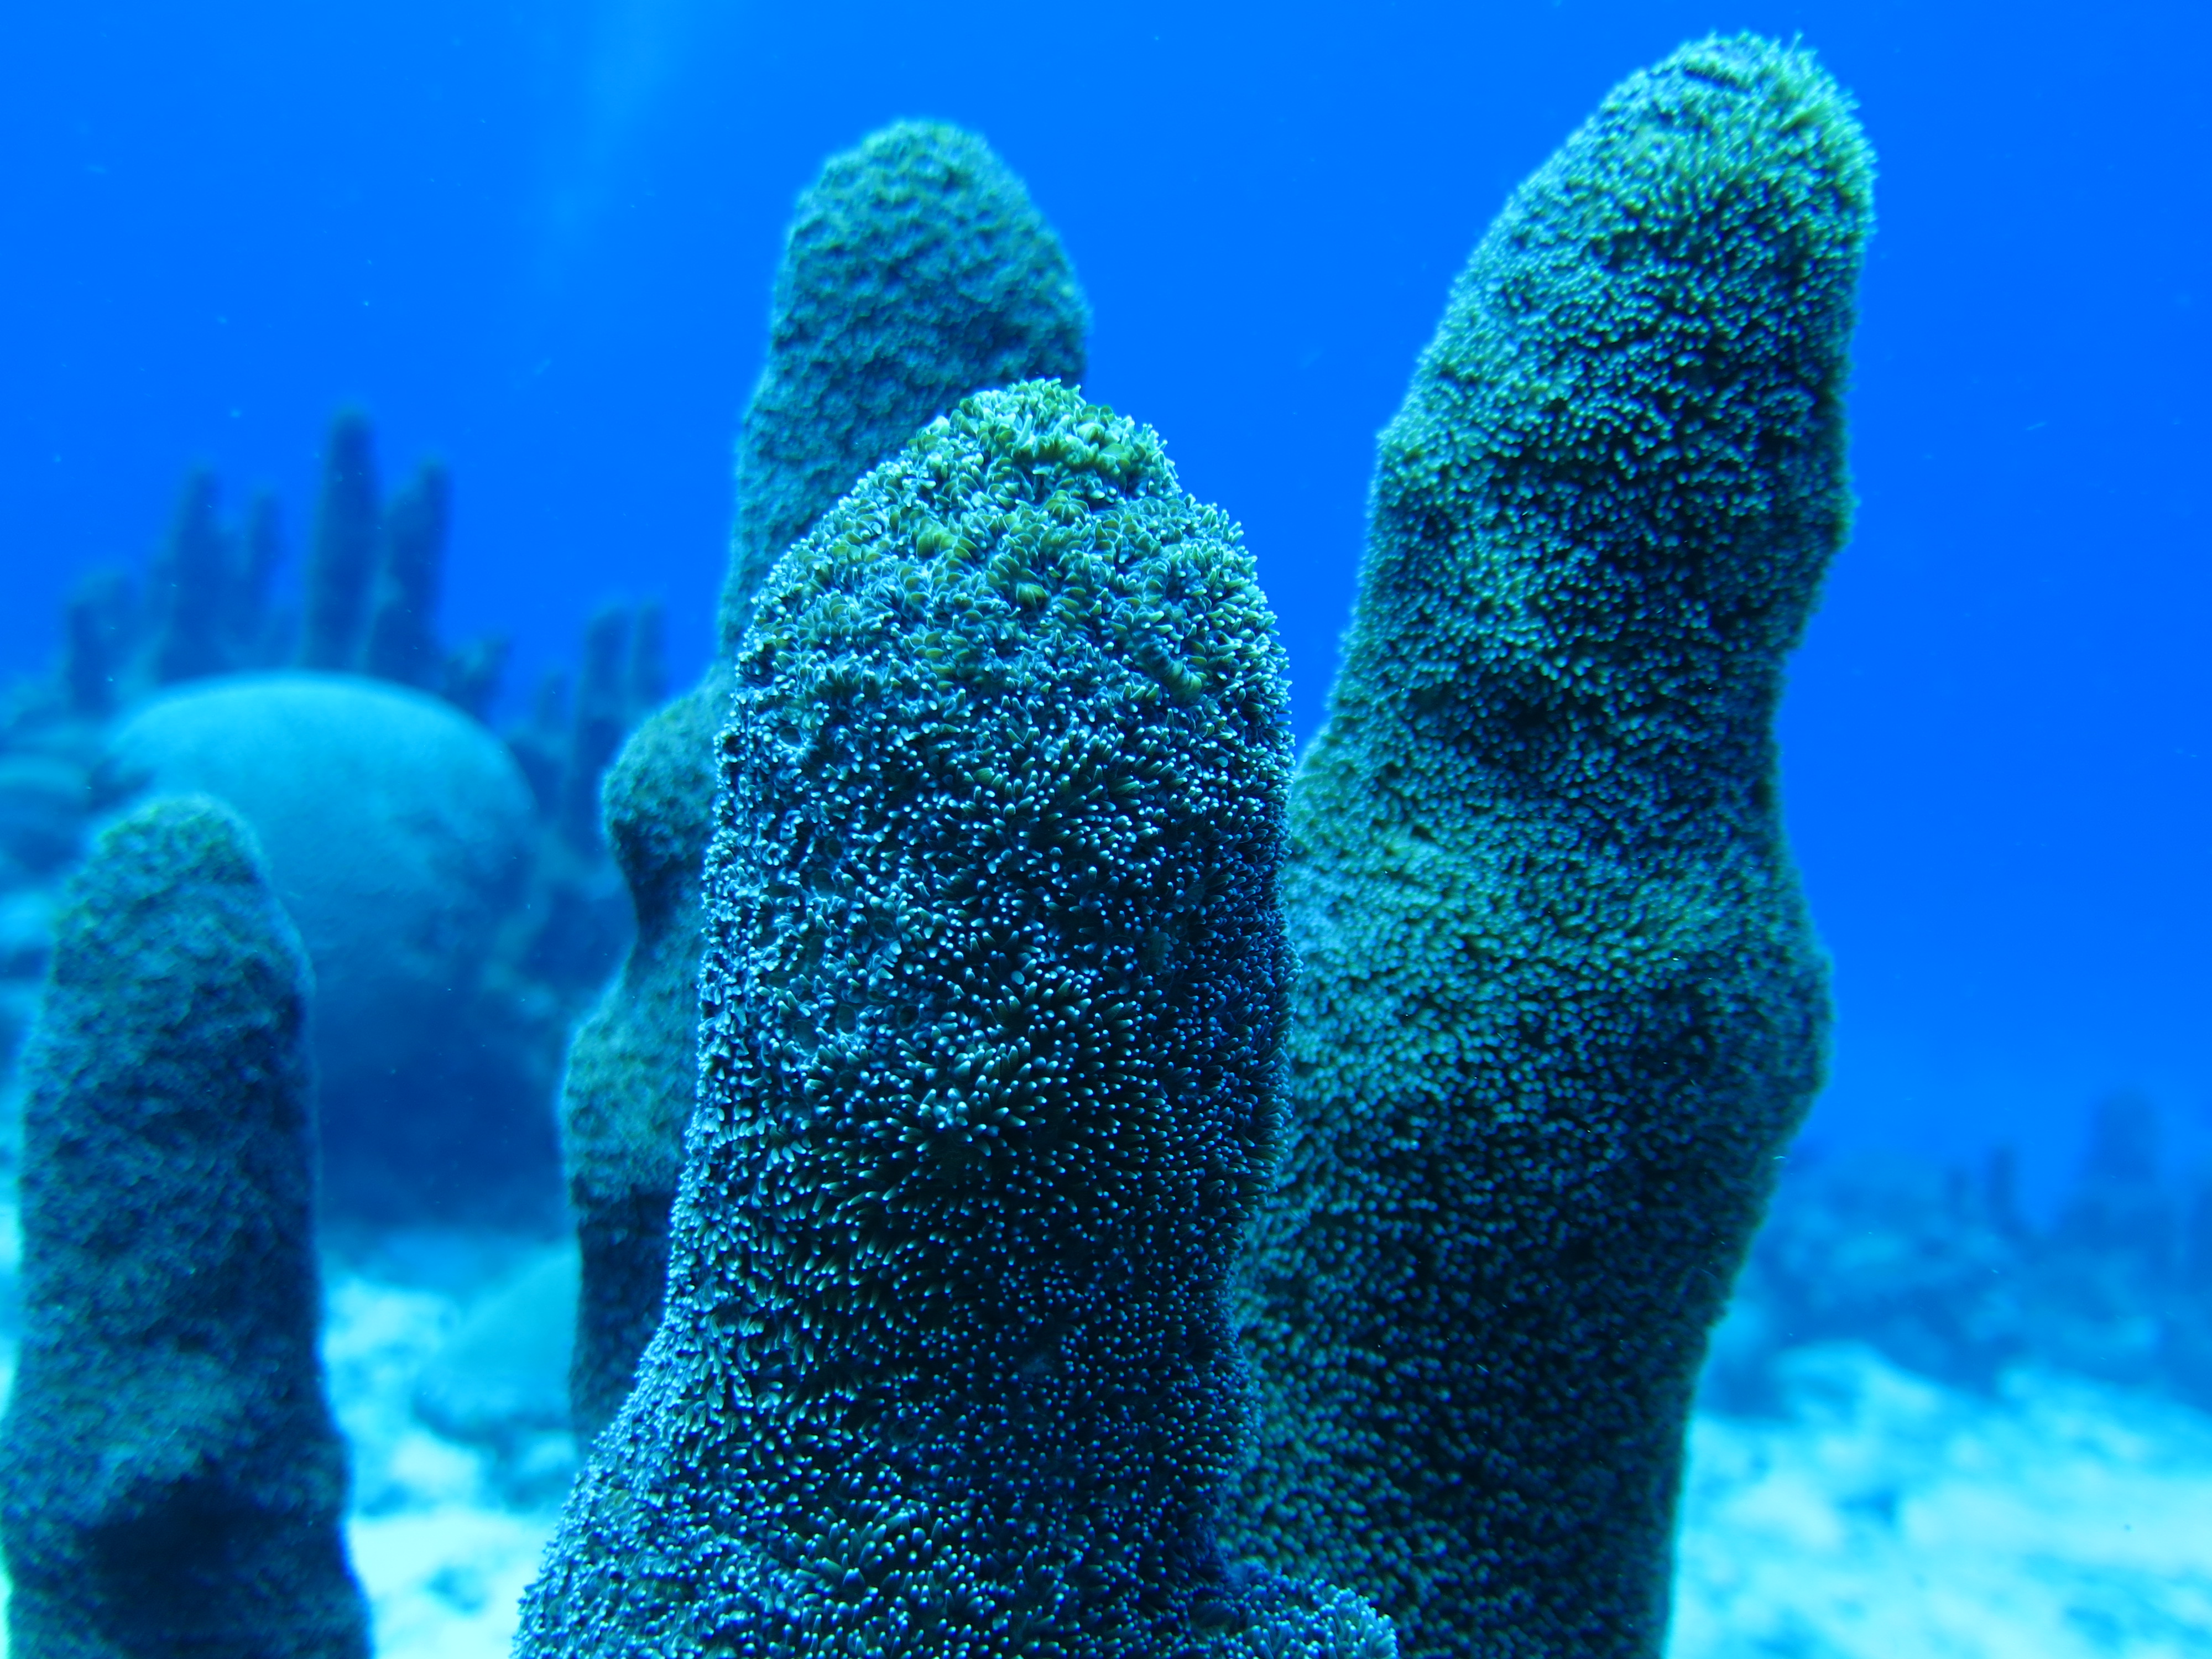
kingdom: Animalia
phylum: Cnidaria
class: Anthozoa
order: Scleractinia
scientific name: Scleractinia
